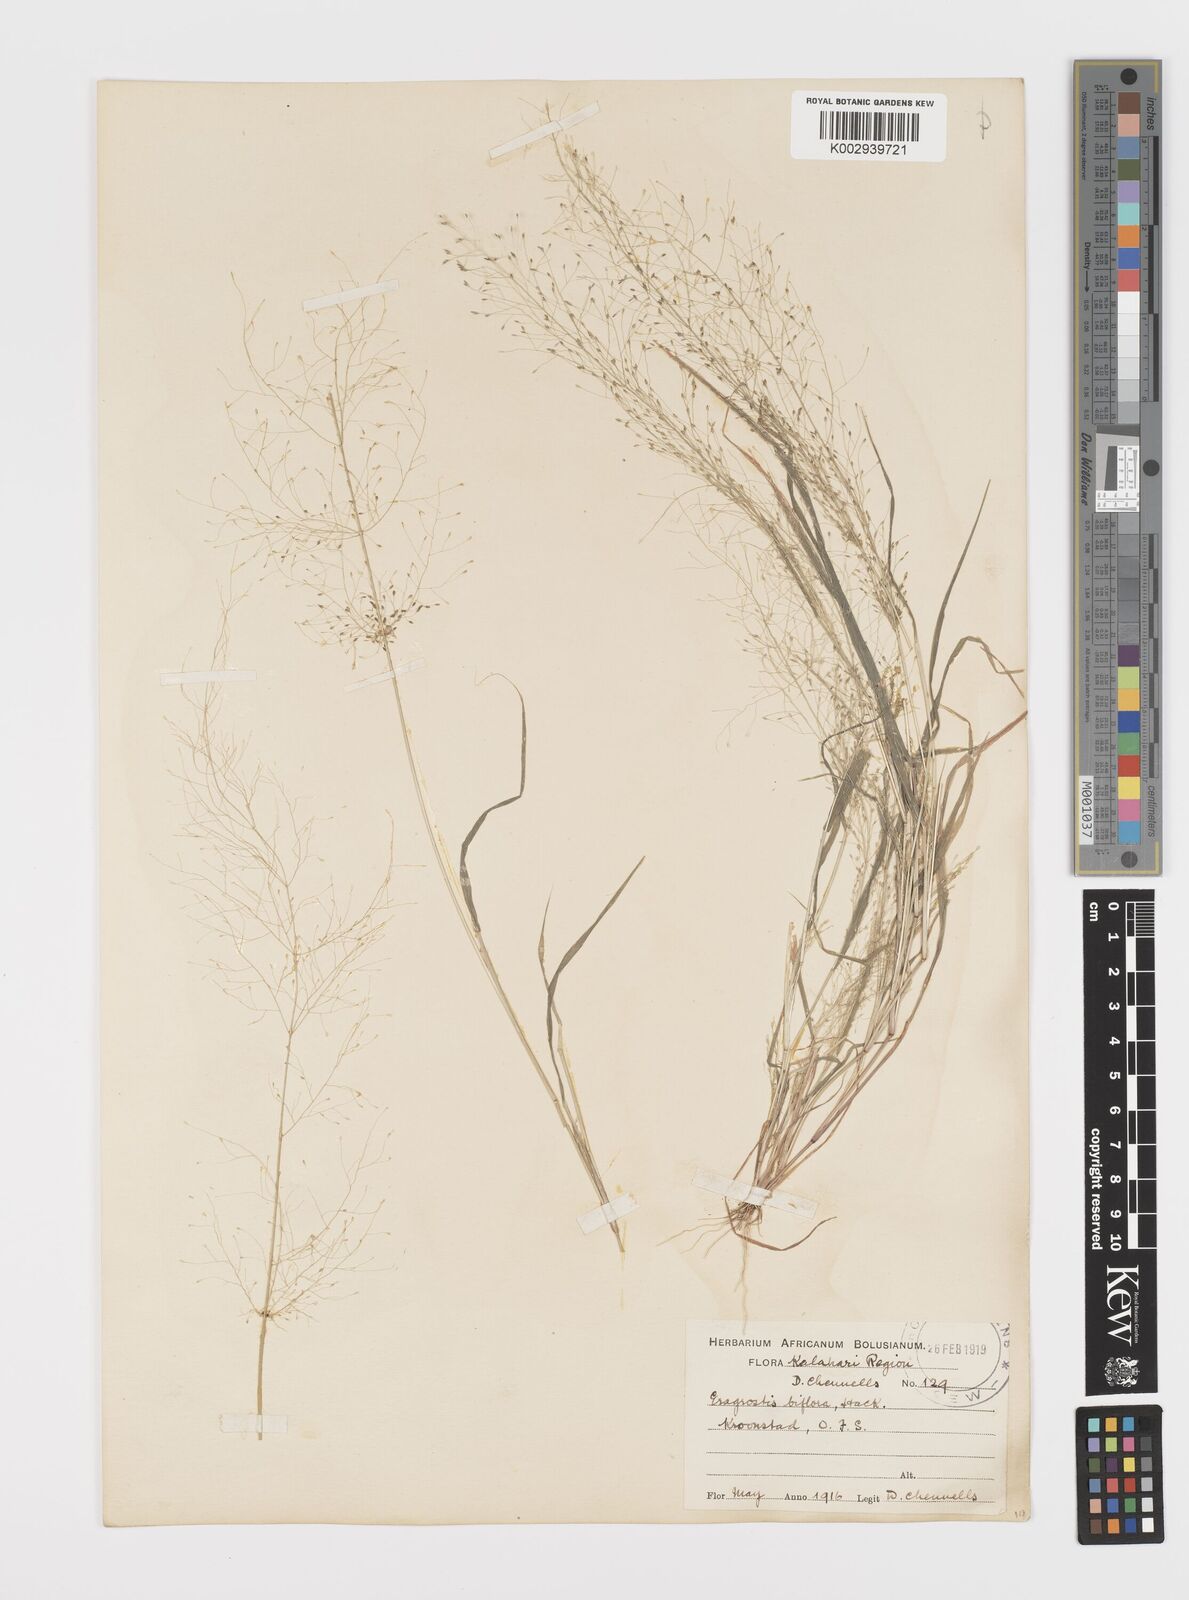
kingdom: Plantae
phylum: Tracheophyta
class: Liliopsida
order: Poales
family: Poaceae
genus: Eragrostis
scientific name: Eragrostis biflora
